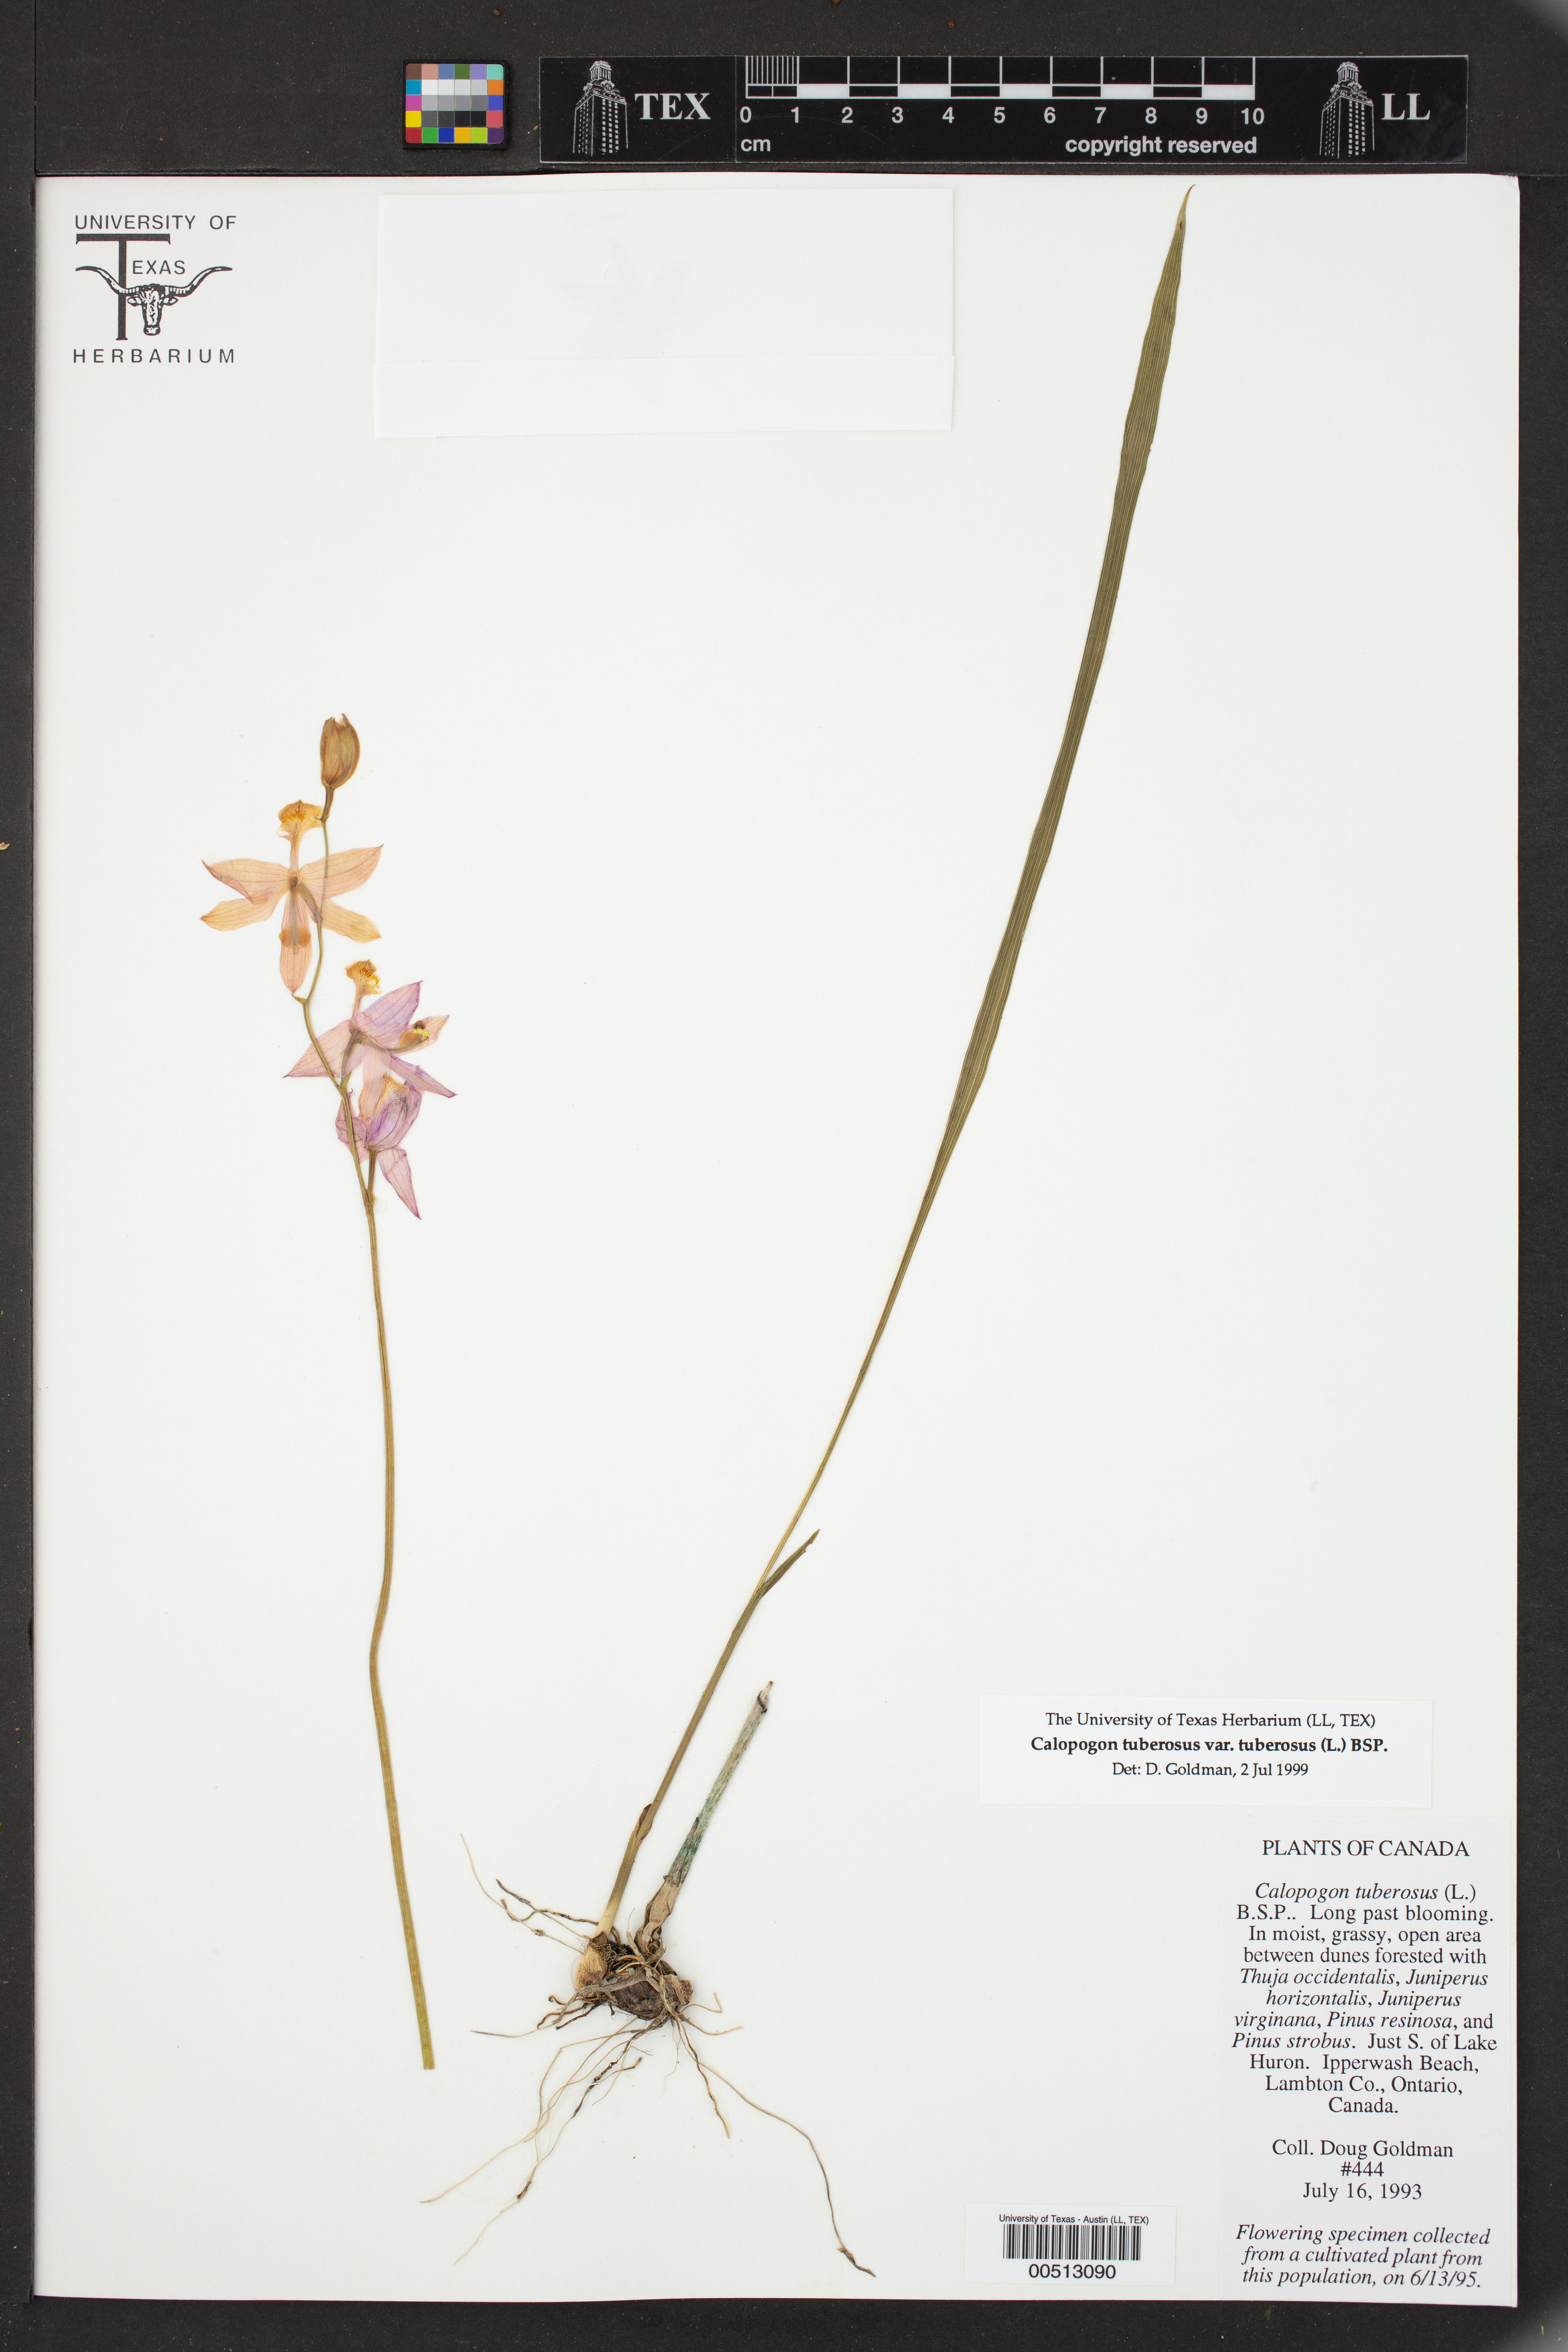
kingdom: Plantae
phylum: Tracheophyta
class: Liliopsida
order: Asparagales
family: Orchidaceae
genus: Calopogon
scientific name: Calopogon tuberosus
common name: Grass-pink
